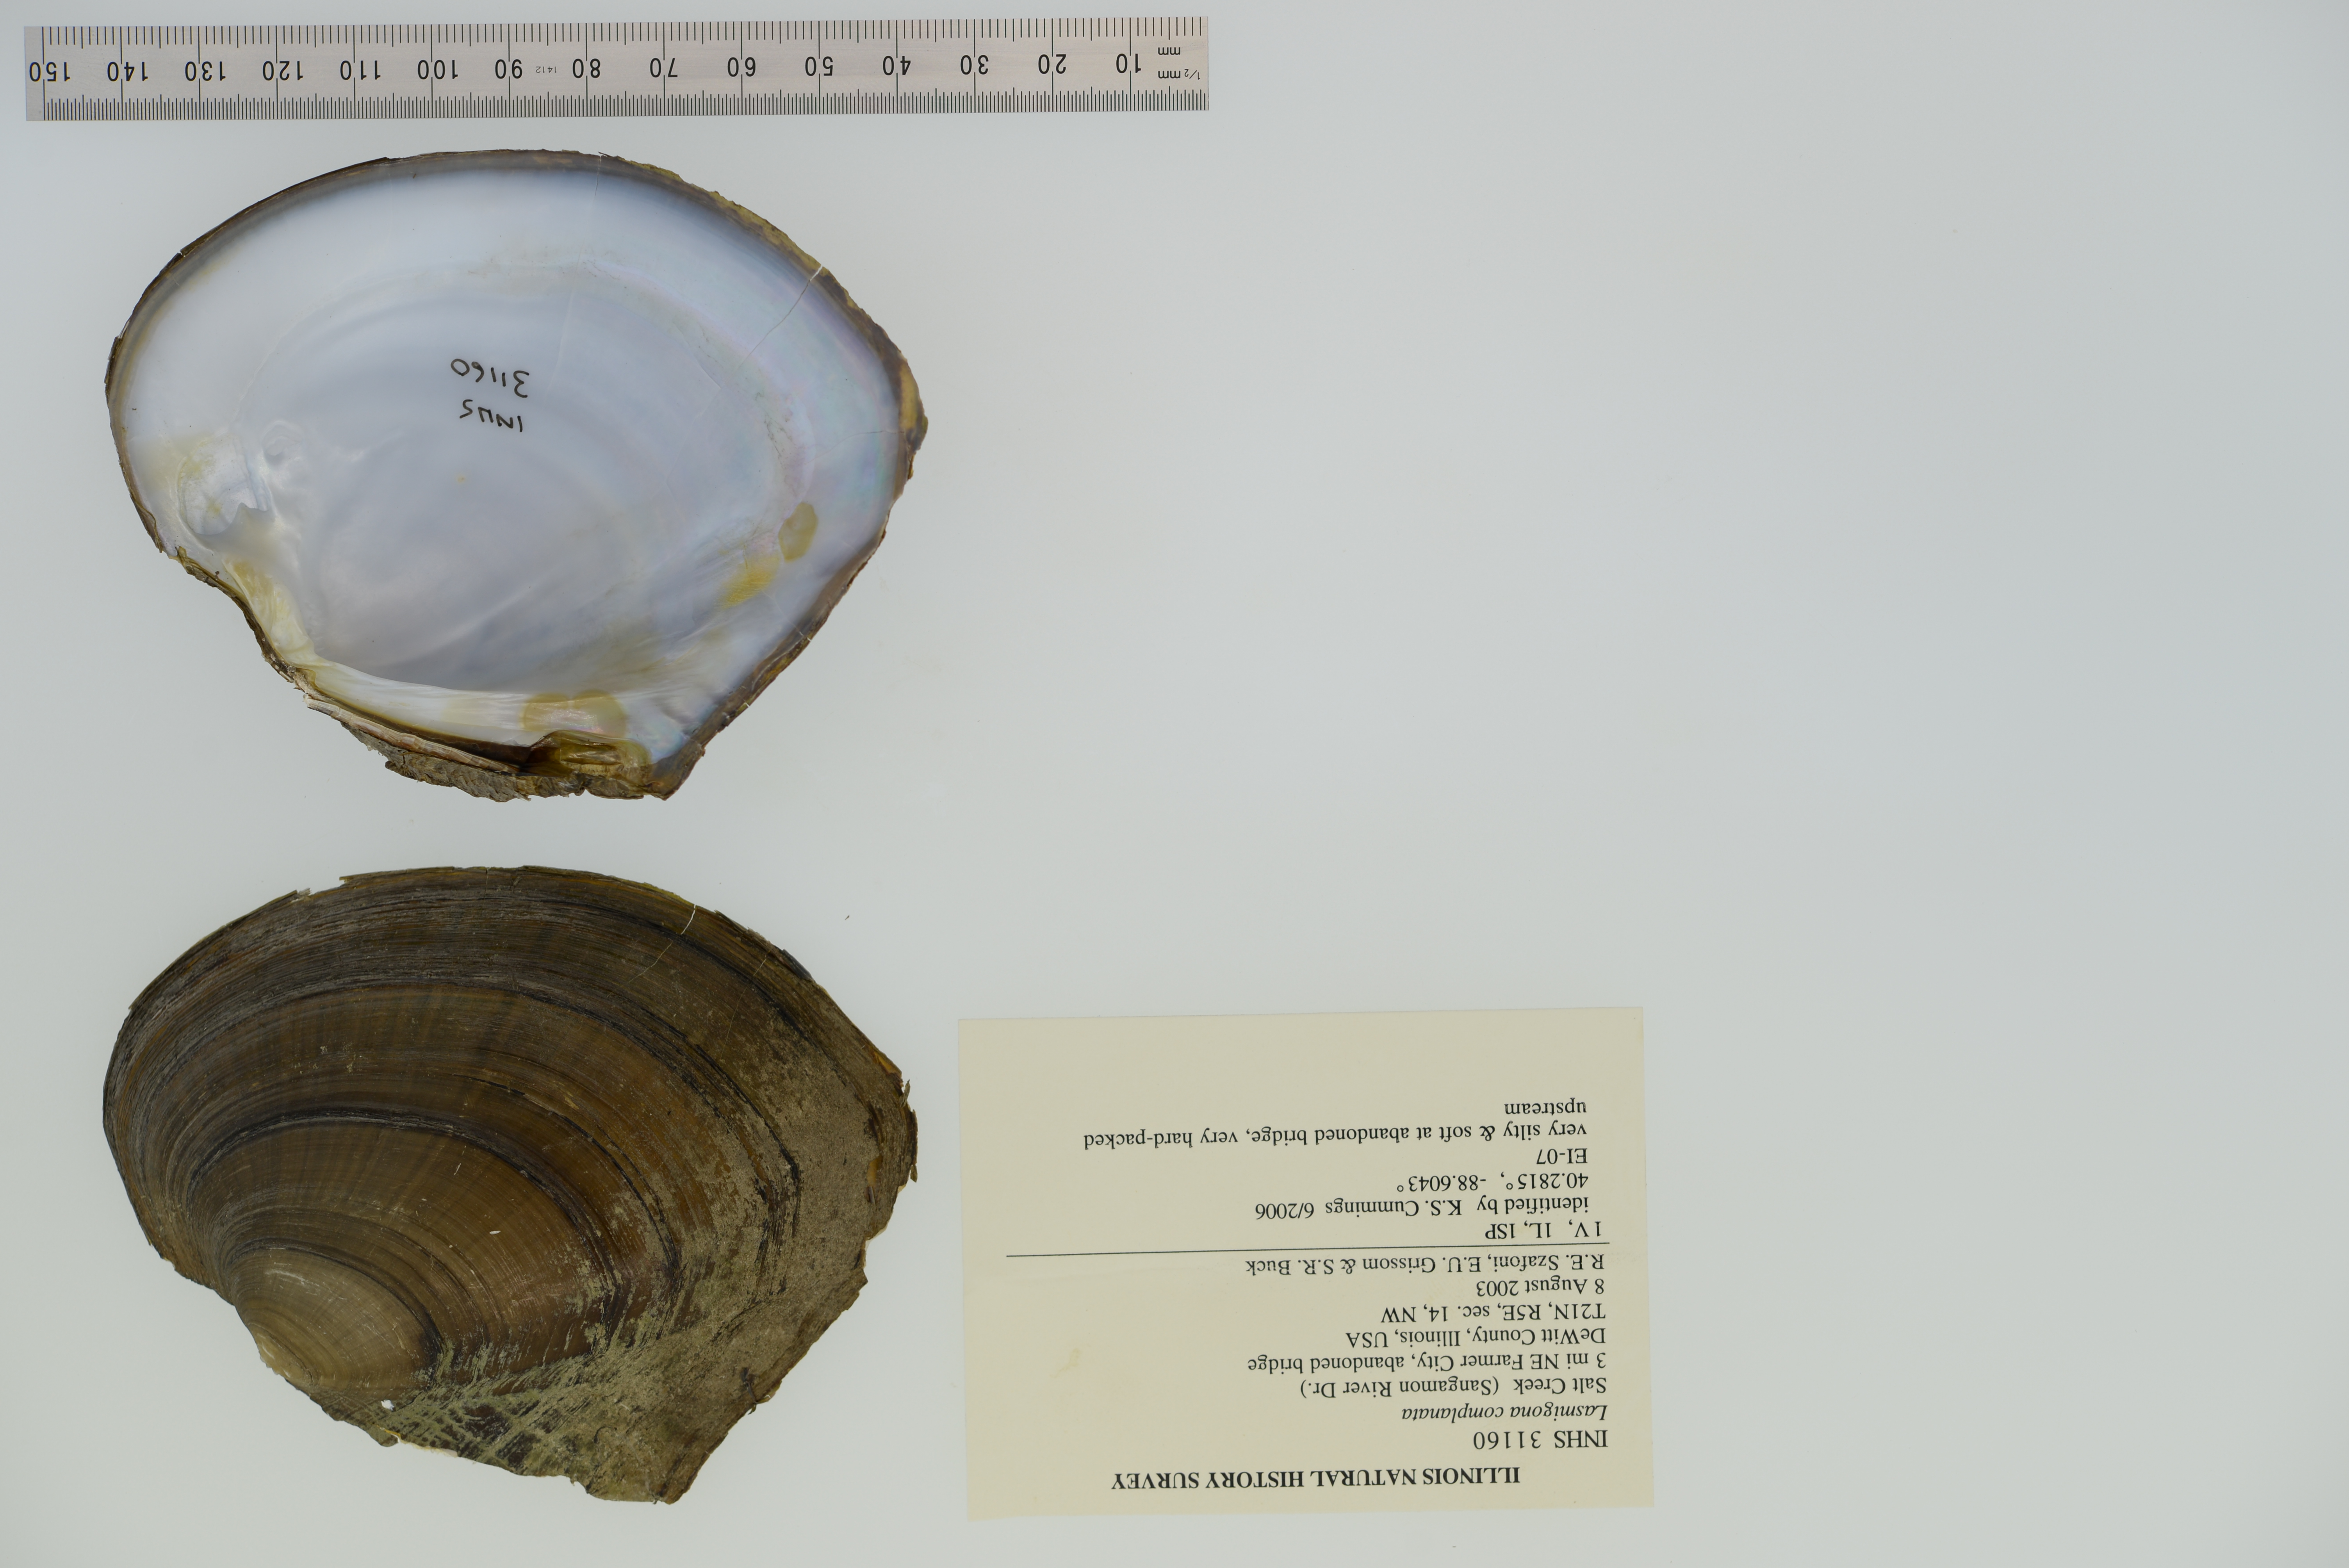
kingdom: Animalia
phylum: Mollusca
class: Bivalvia
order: Unionida
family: Unionidae
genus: Lasmigona
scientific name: Lasmigona complanata
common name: White heelsplitter
